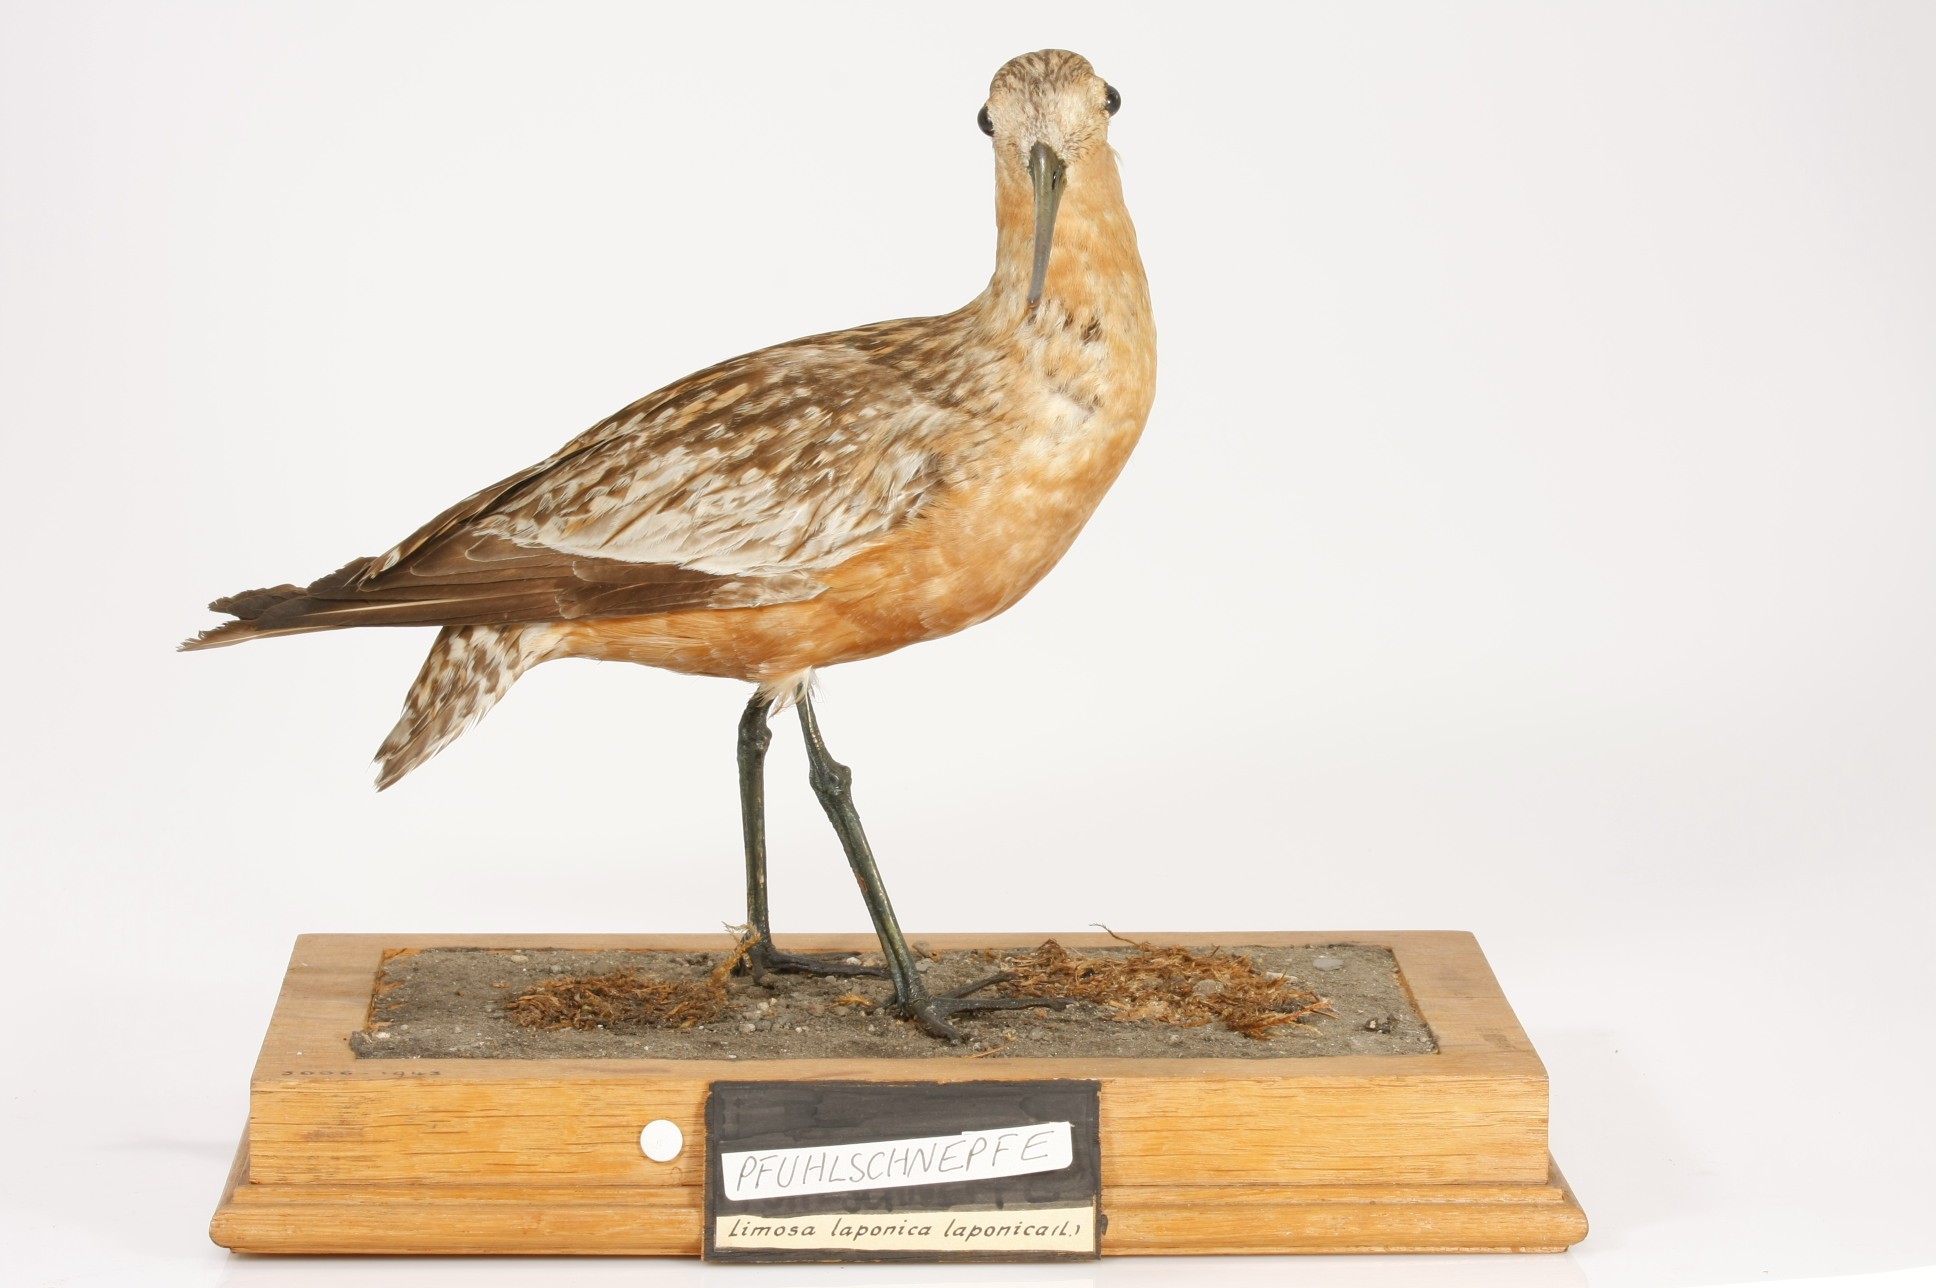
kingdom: Animalia
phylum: Chordata
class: Aves
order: Charadriiformes
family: Scolopacidae
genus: Limosa
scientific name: Limosa lapponica
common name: Bar-tailed godwit
